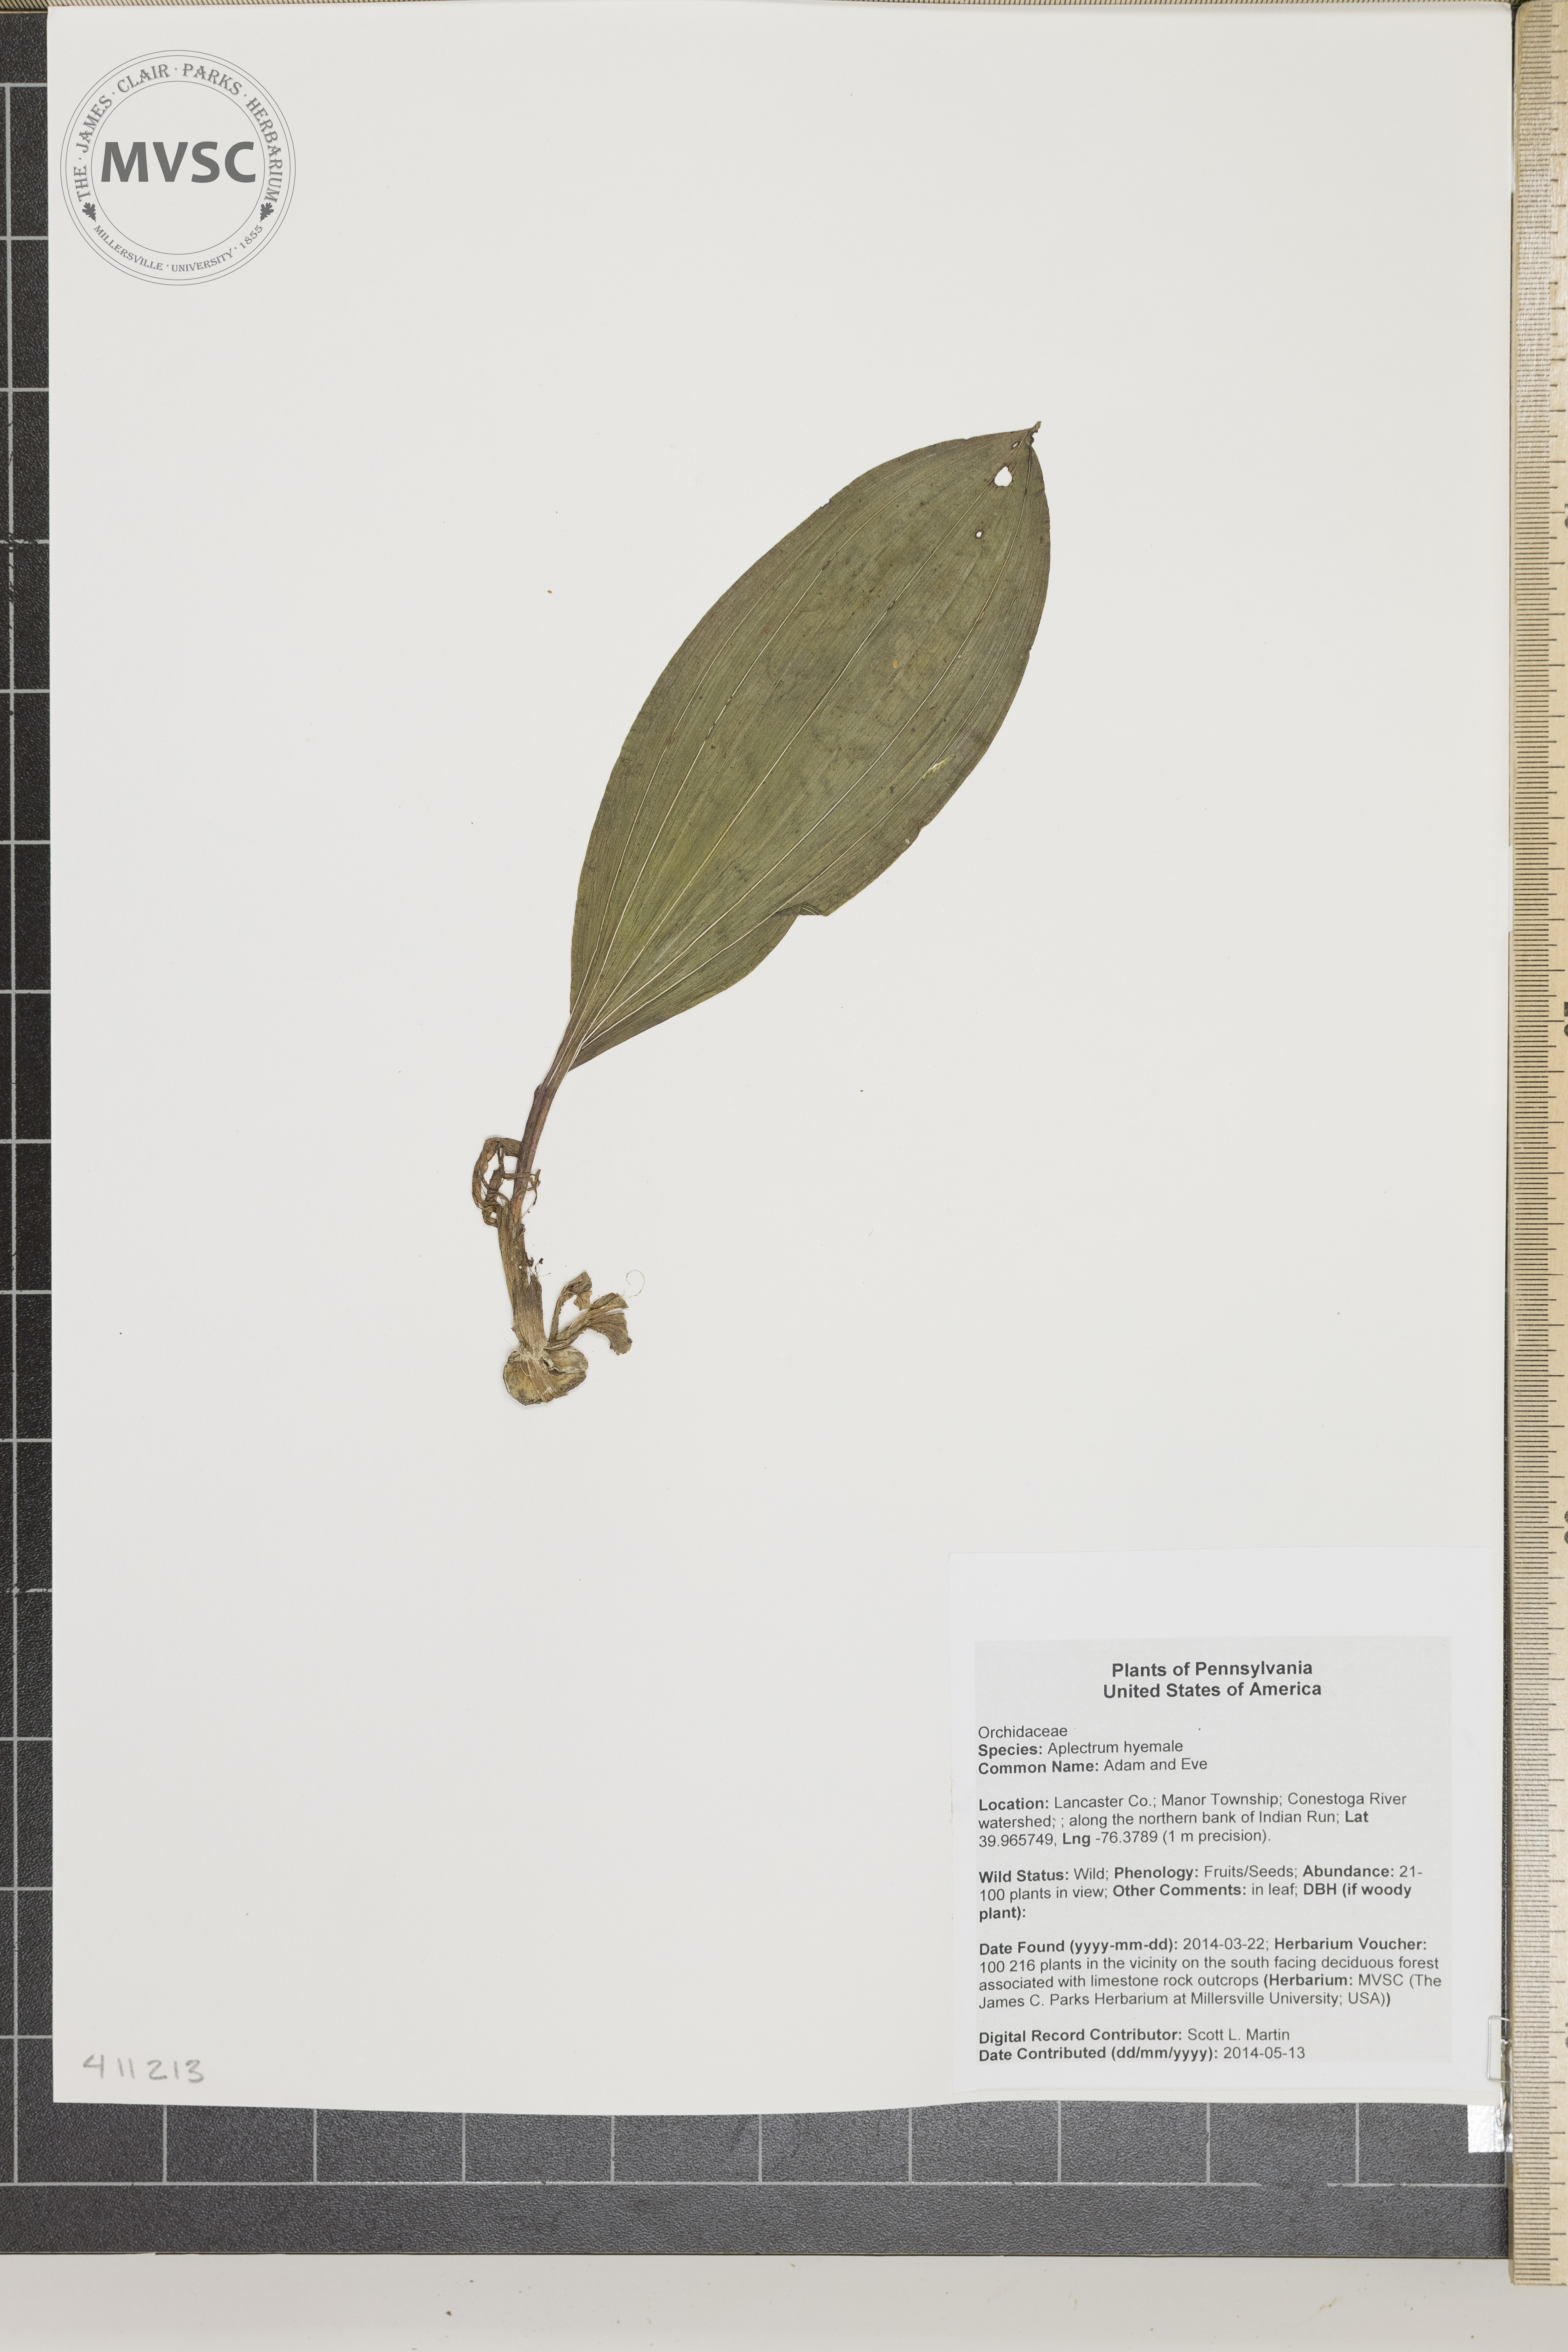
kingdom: Plantae
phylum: Tracheophyta
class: Liliopsida
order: Asparagales
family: Orchidaceae
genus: Aplectrum
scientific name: Aplectrum hyemale
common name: Adam and Eve
